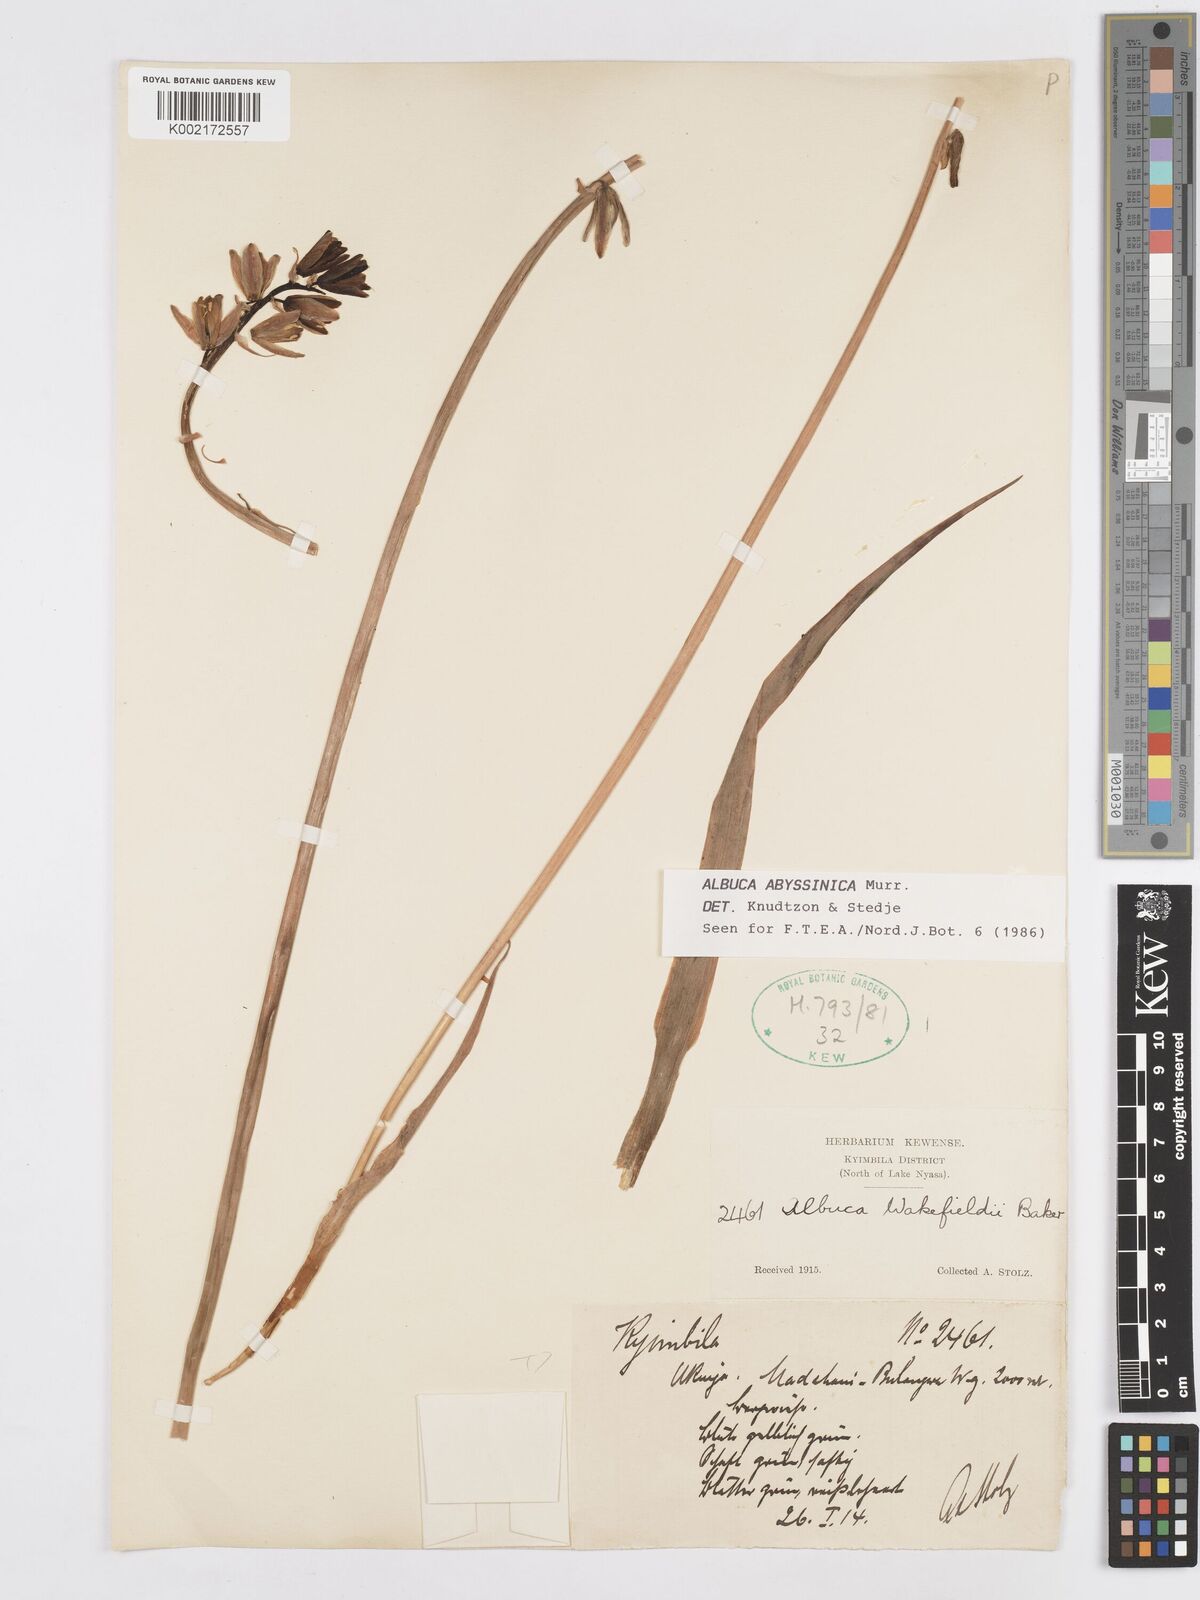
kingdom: Plantae
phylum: Tracheophyta
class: Liliopsida
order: Asparagales
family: Asparagaceae
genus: Albuca
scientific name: Albuca abyssinica
